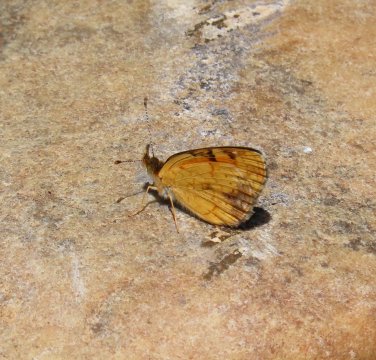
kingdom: Animalia
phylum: Arthropoda
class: Insecta
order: Lepidoptera
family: Nymphalidae
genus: Phyciodes
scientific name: Phyciodes tharos
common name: Northern Crescent
